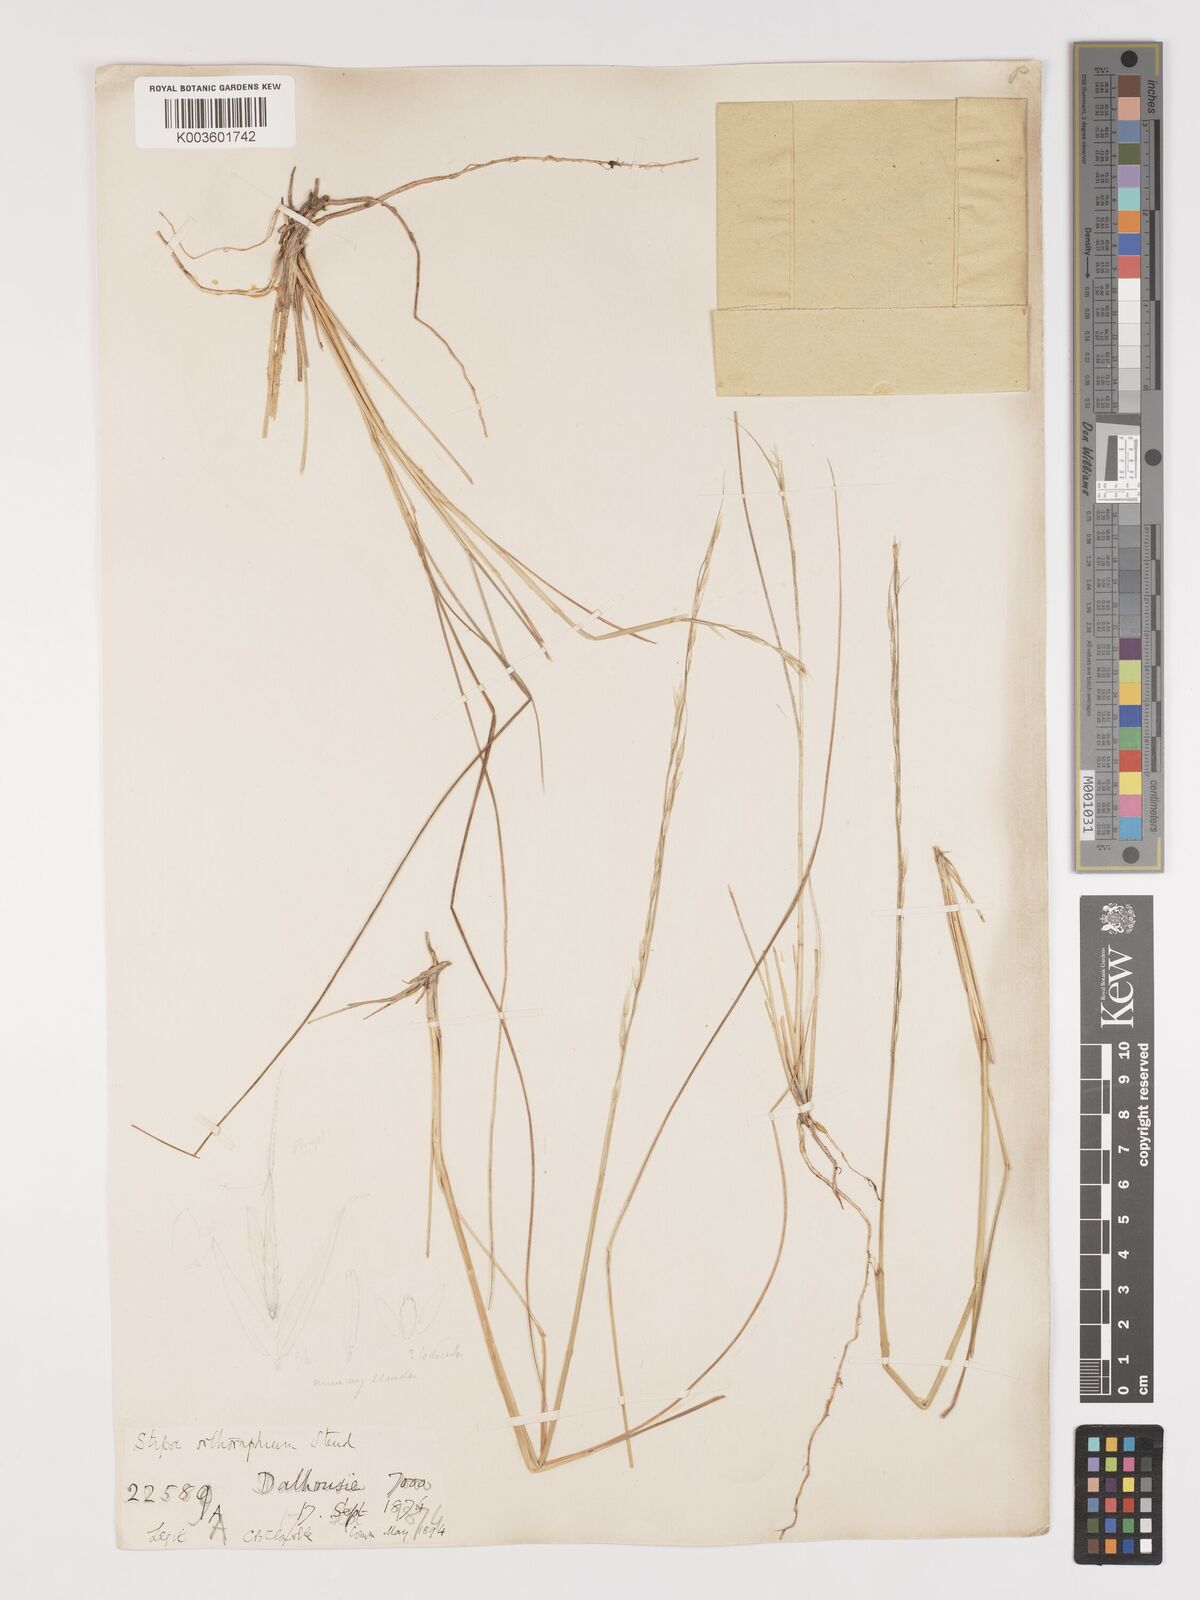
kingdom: Plantae
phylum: Tracheophyta
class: Liliopsida
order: Poales
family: Poaceae
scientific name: Poaceae
